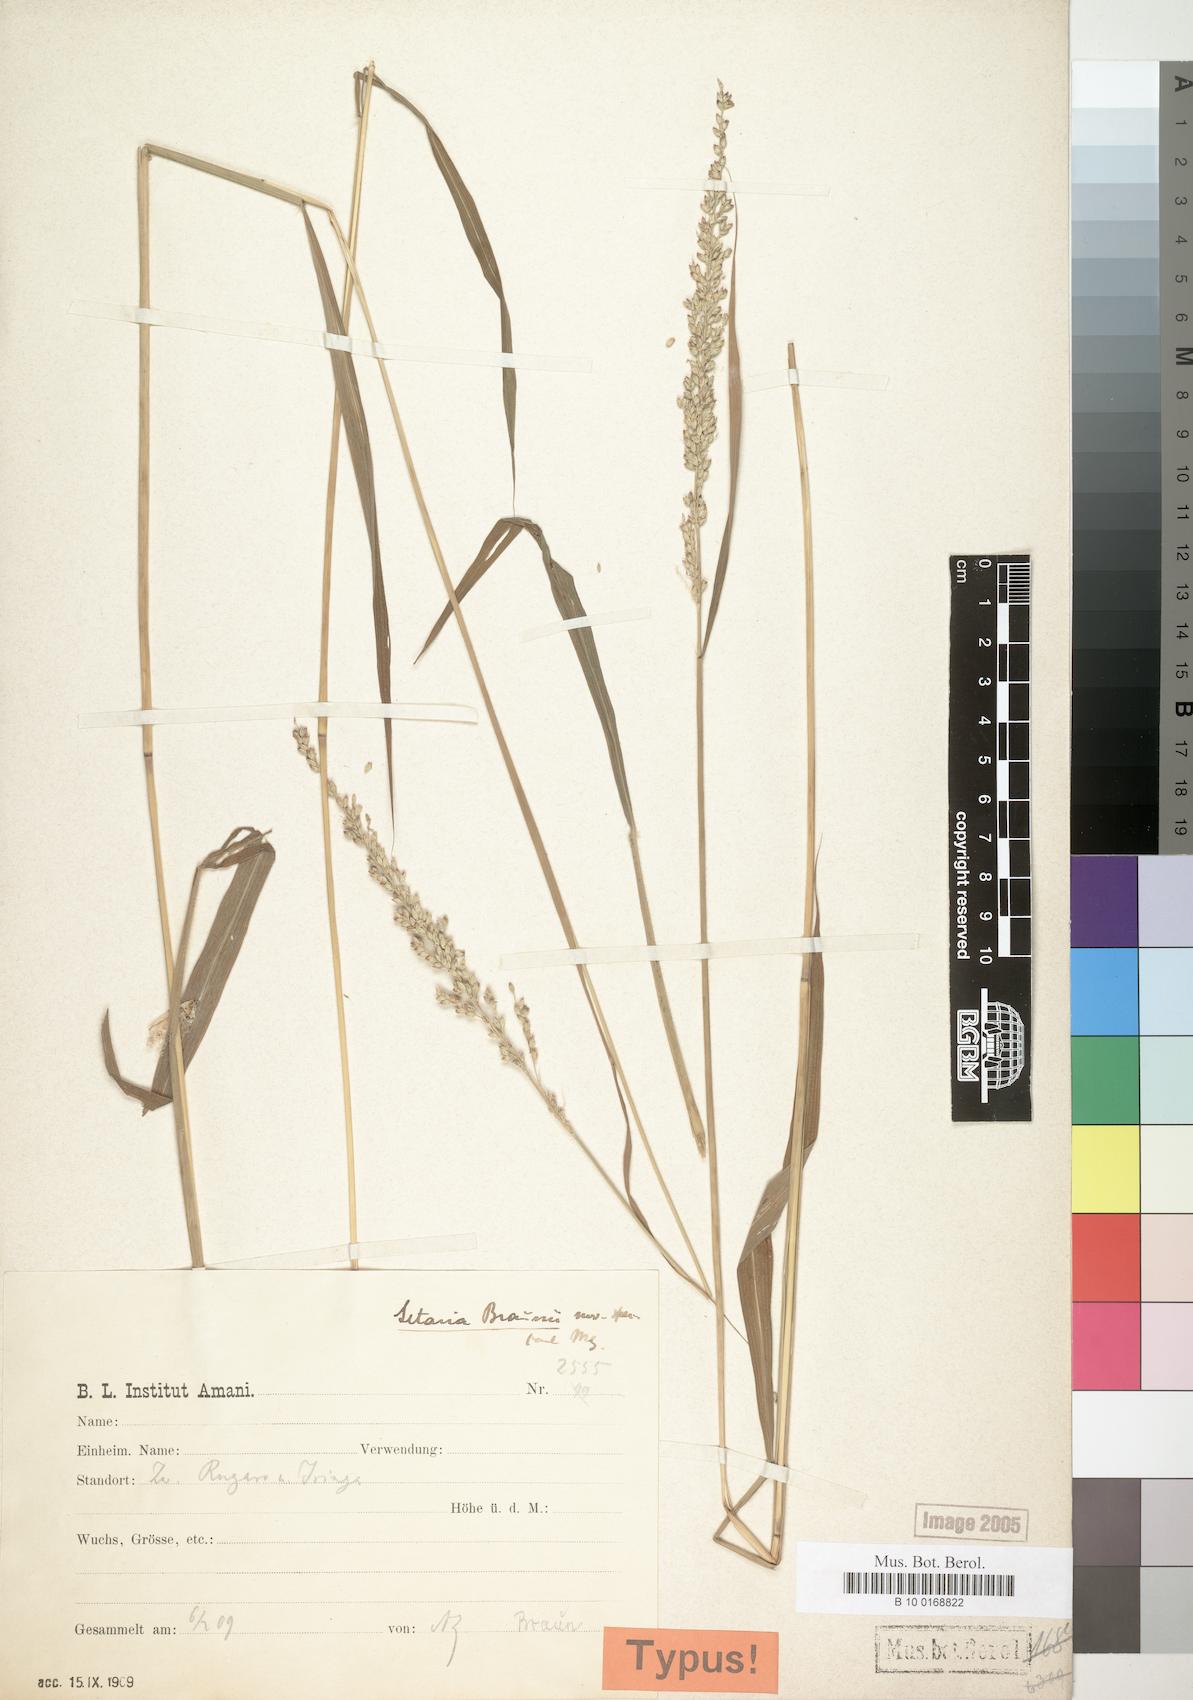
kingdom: Plantae
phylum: Tracheophyta
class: Liliopsida
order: Poales
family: Poaceae
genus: Setaria
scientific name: Setaria braunii
